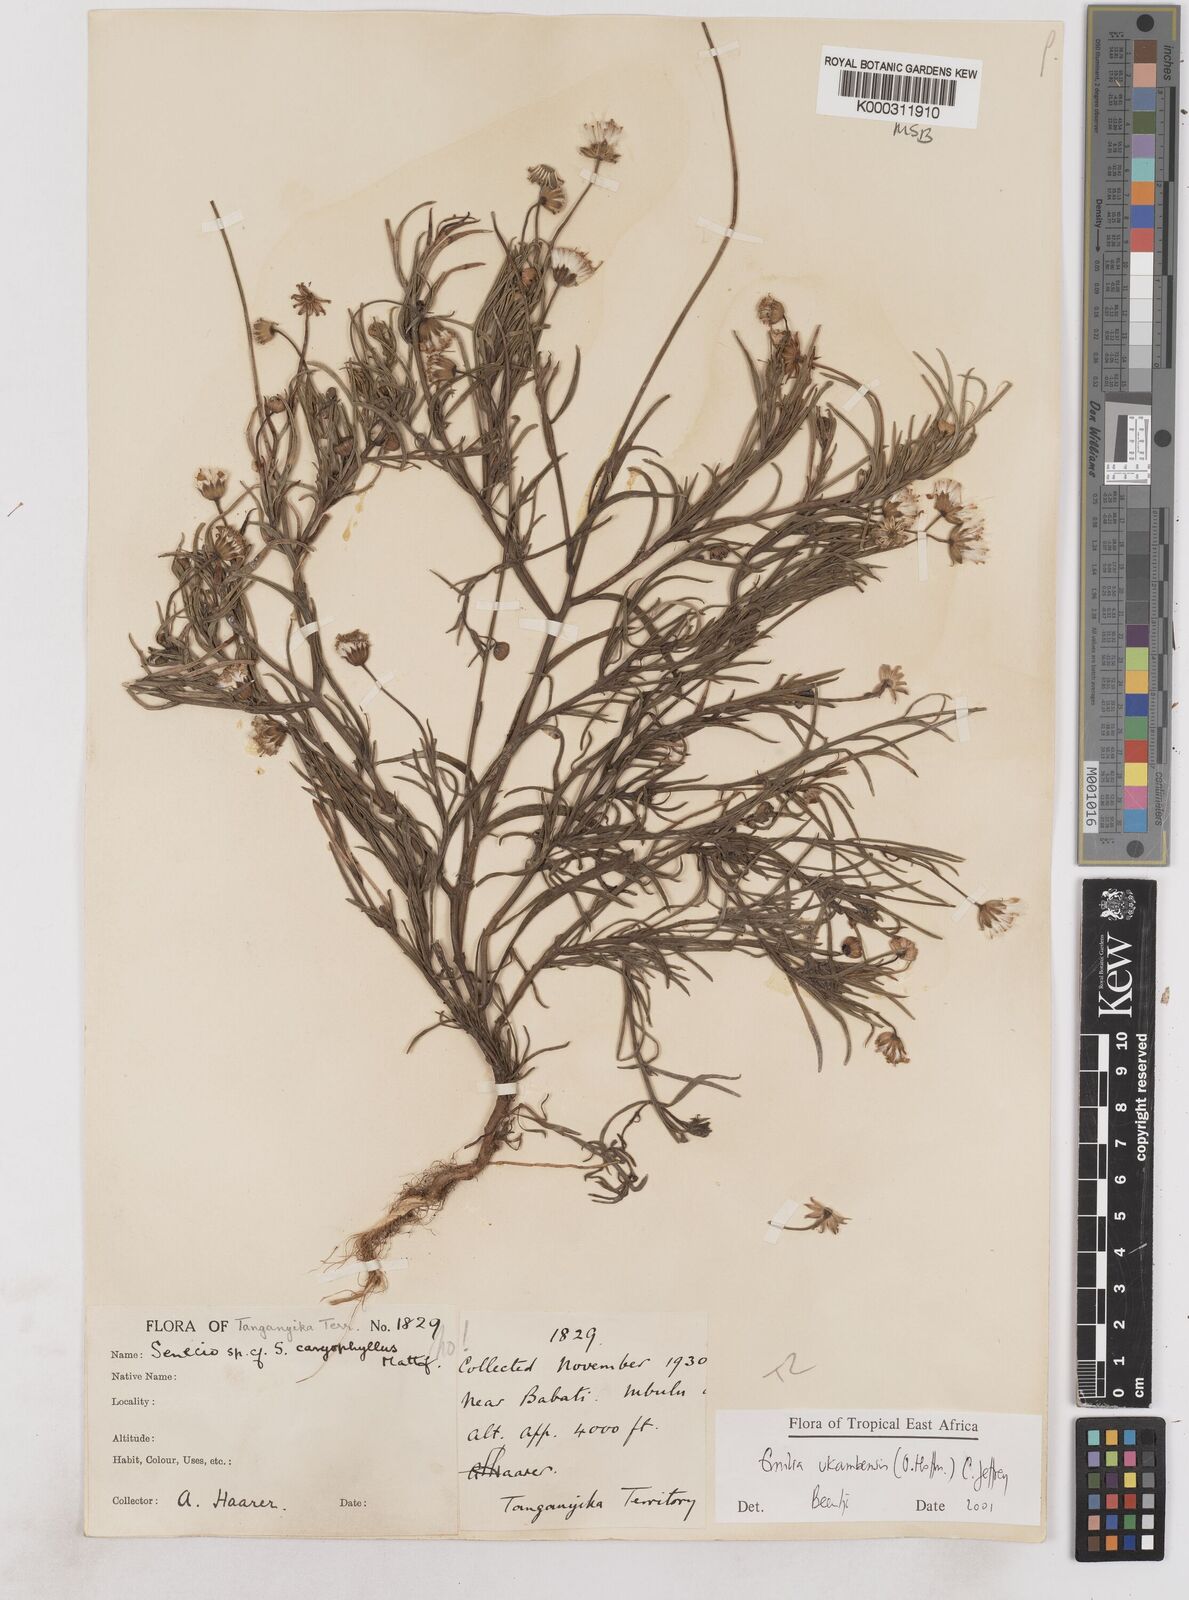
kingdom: Plantae
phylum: Tracheophyta
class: Magnoliopsida
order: Asterales
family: Asteraceae
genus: Emilia
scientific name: Emilia ukambensis
